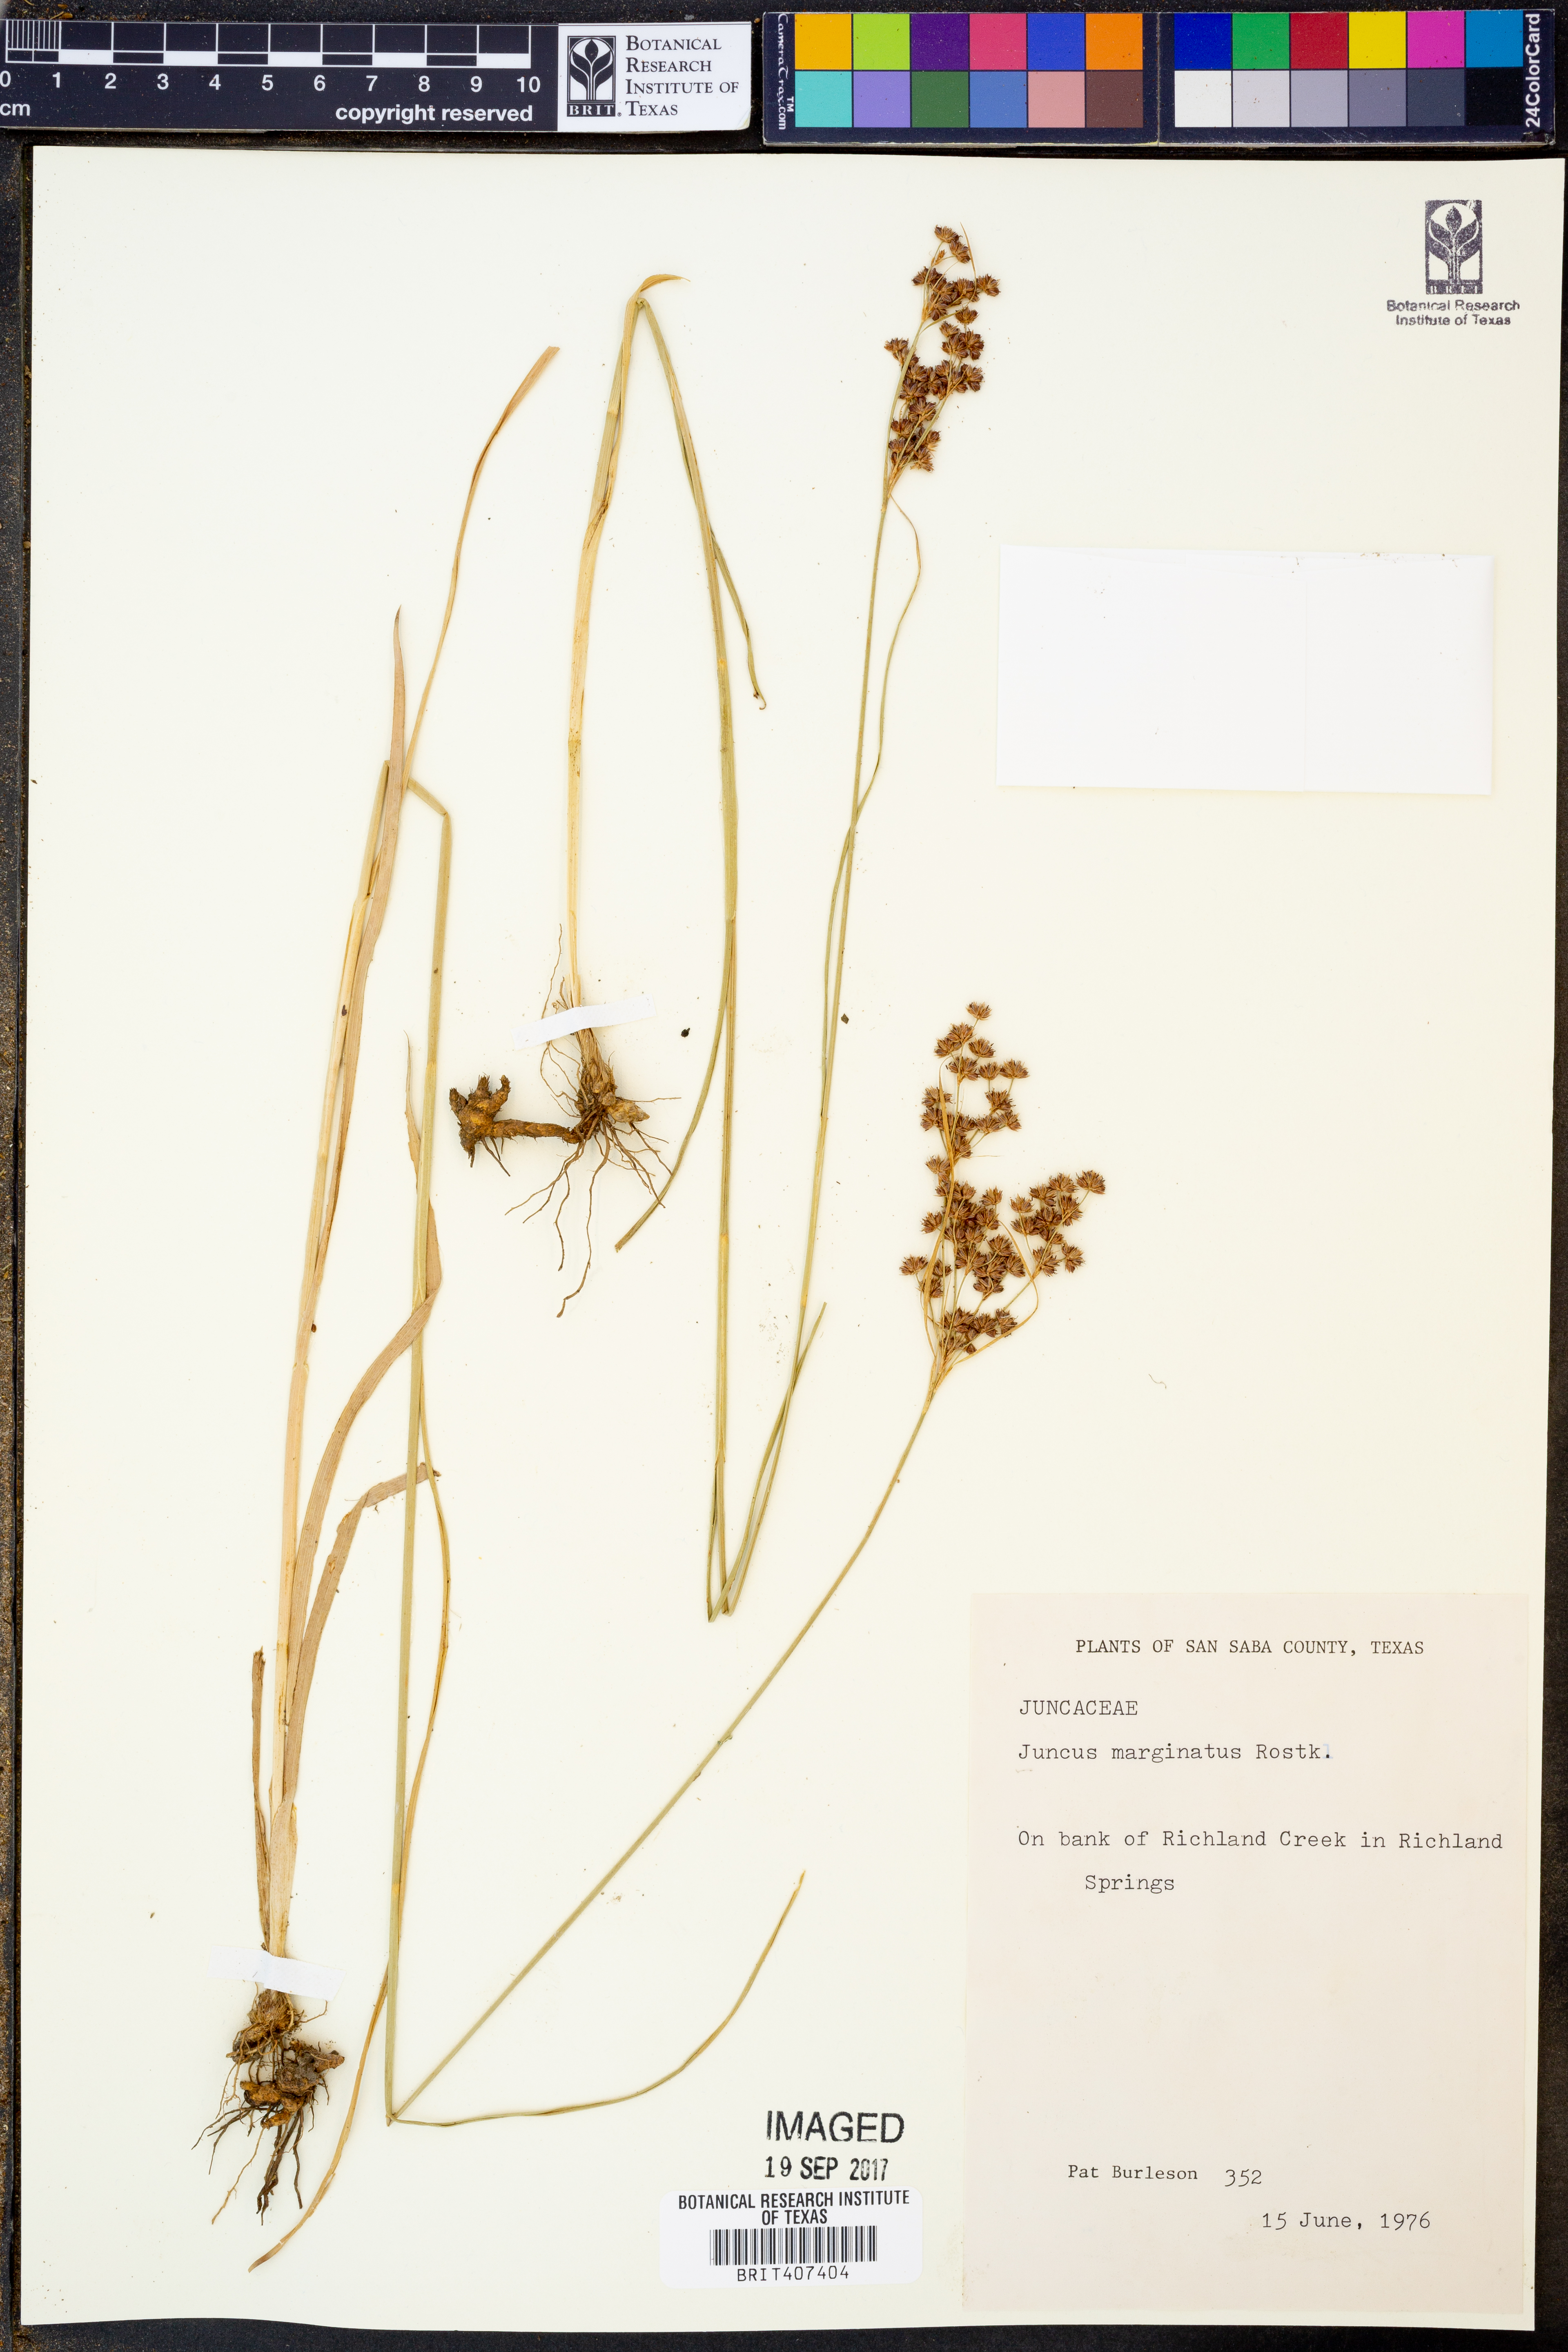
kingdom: Plantae
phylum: Tracheophyta
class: Liliopsida
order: Poales
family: Juncaceae
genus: Juncus
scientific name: Juncus marginatus
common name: Grass-leaf rush
